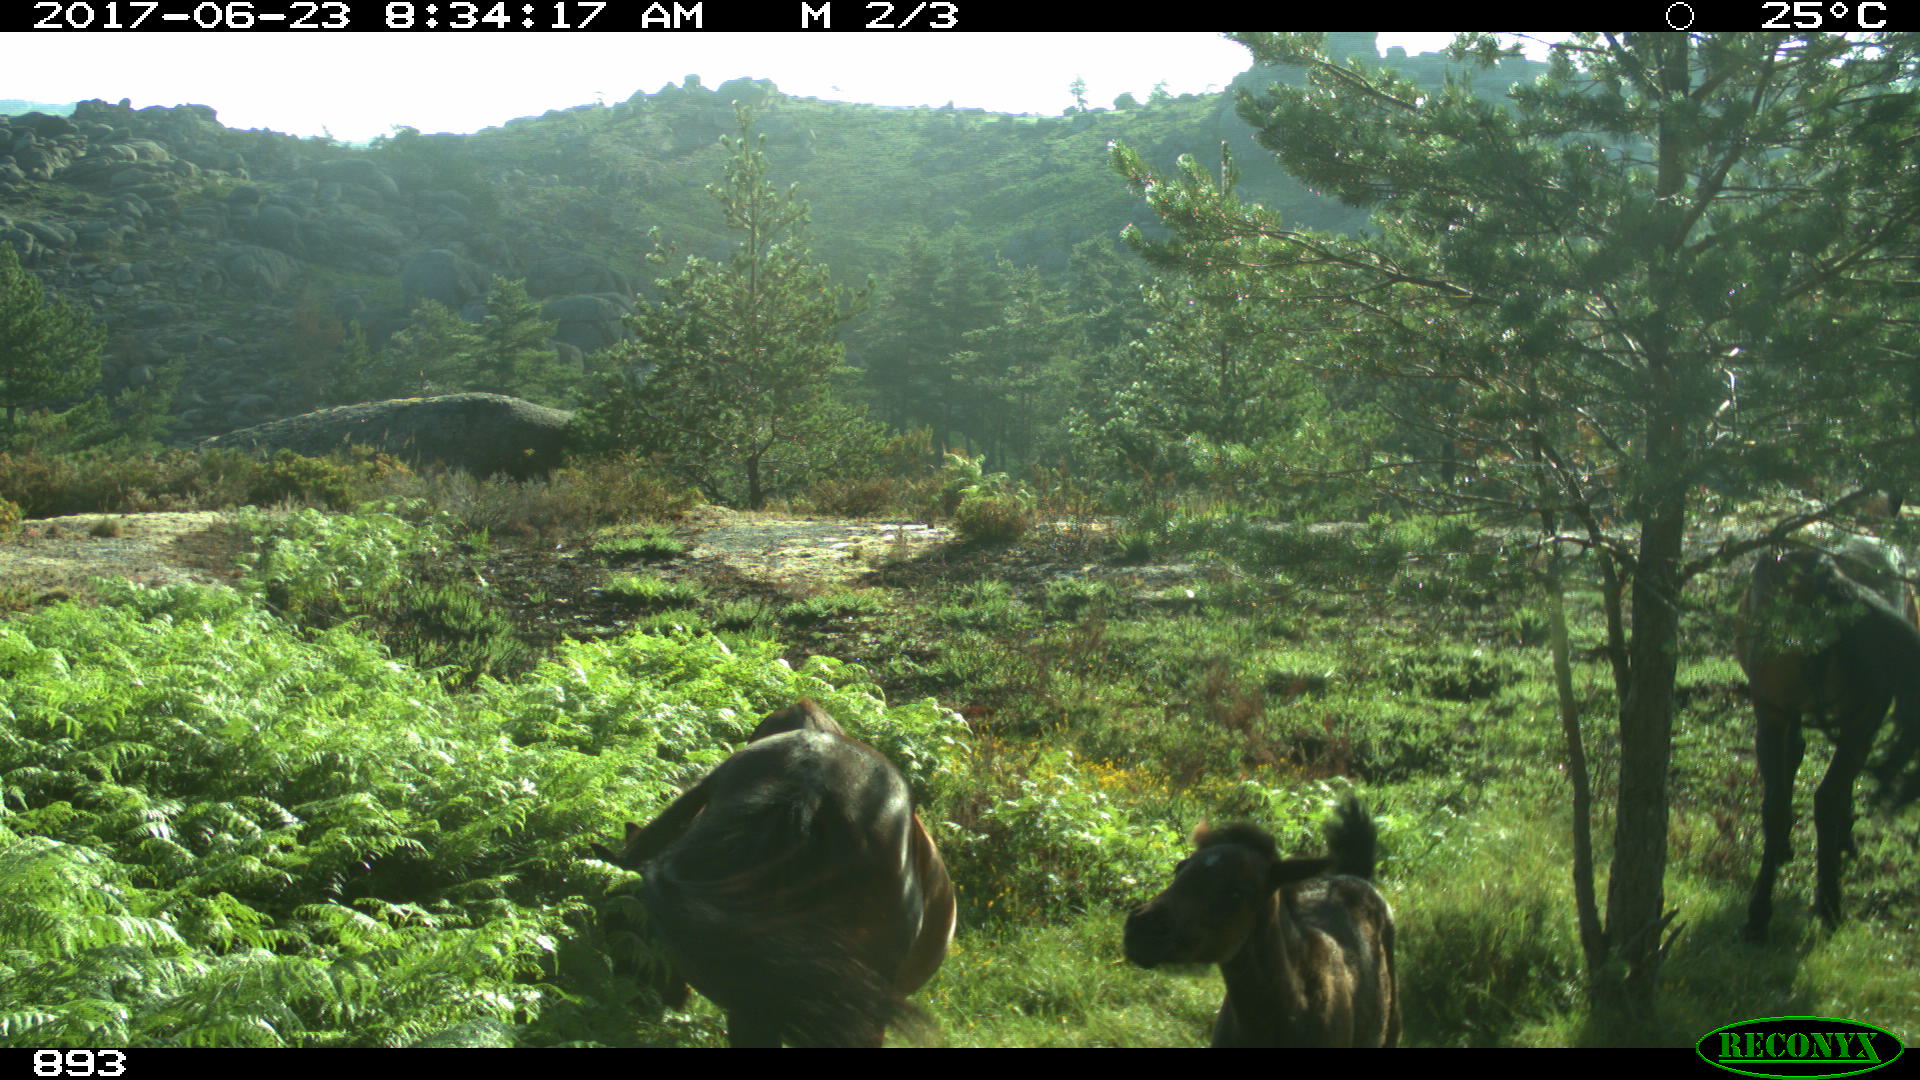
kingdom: Animalia
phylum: Chordata
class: Mammalia
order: Perissodactyla
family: Equidae
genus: Equus
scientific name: Equus caballus
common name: Horse
